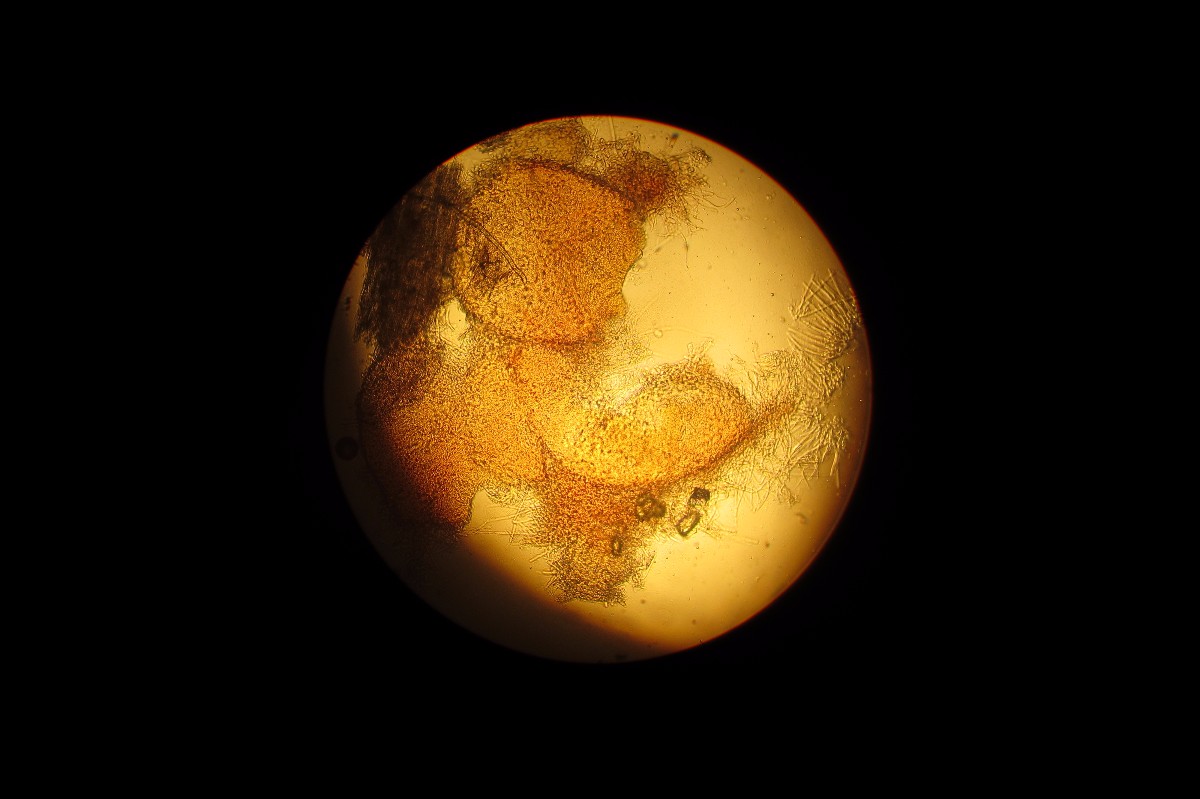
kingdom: Fungi
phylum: Ascomycota
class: Sordariomycetes
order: Hypocreales
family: Hypocreaceae
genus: Hypomyces
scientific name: Hypomyces
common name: snylteskorpe
